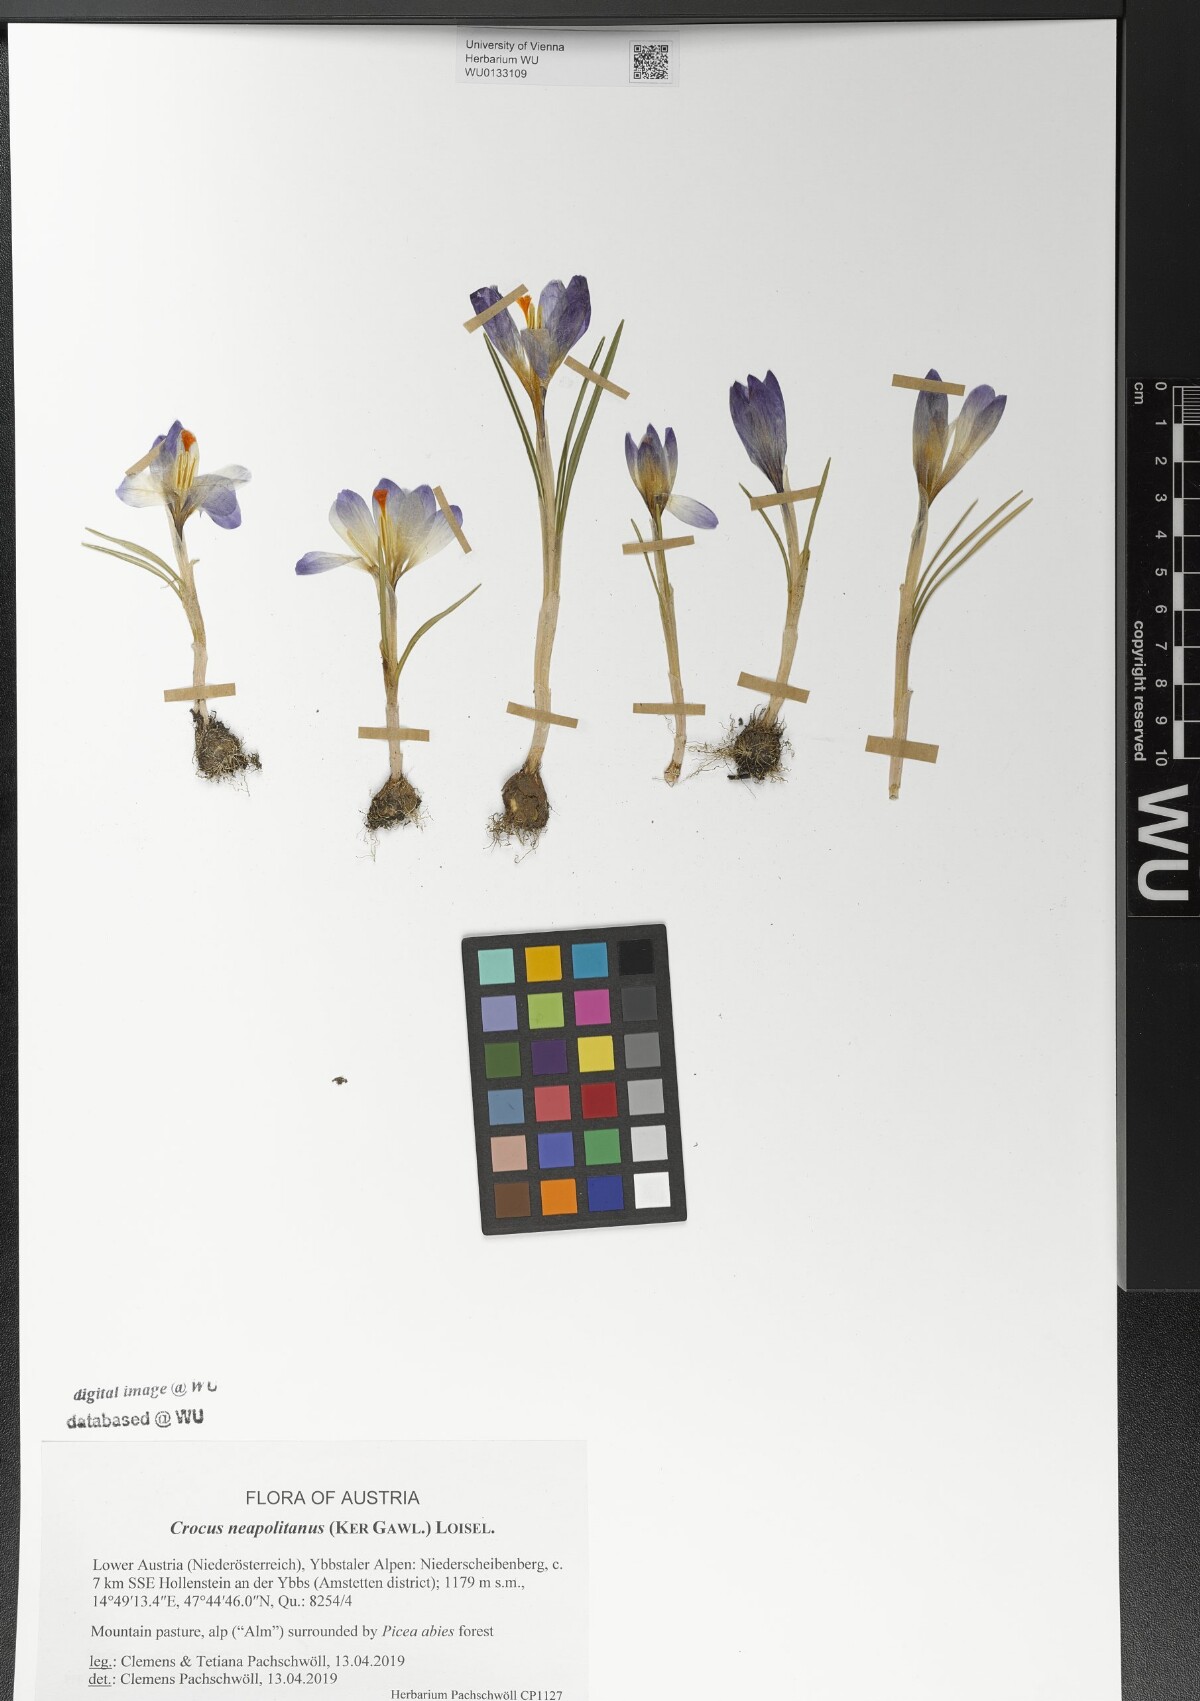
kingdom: Plantae
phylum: Tracheophyta
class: Liliopsida
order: Asparagales
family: Iridaceae
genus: Crocus
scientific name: Crocus neapolitanus
